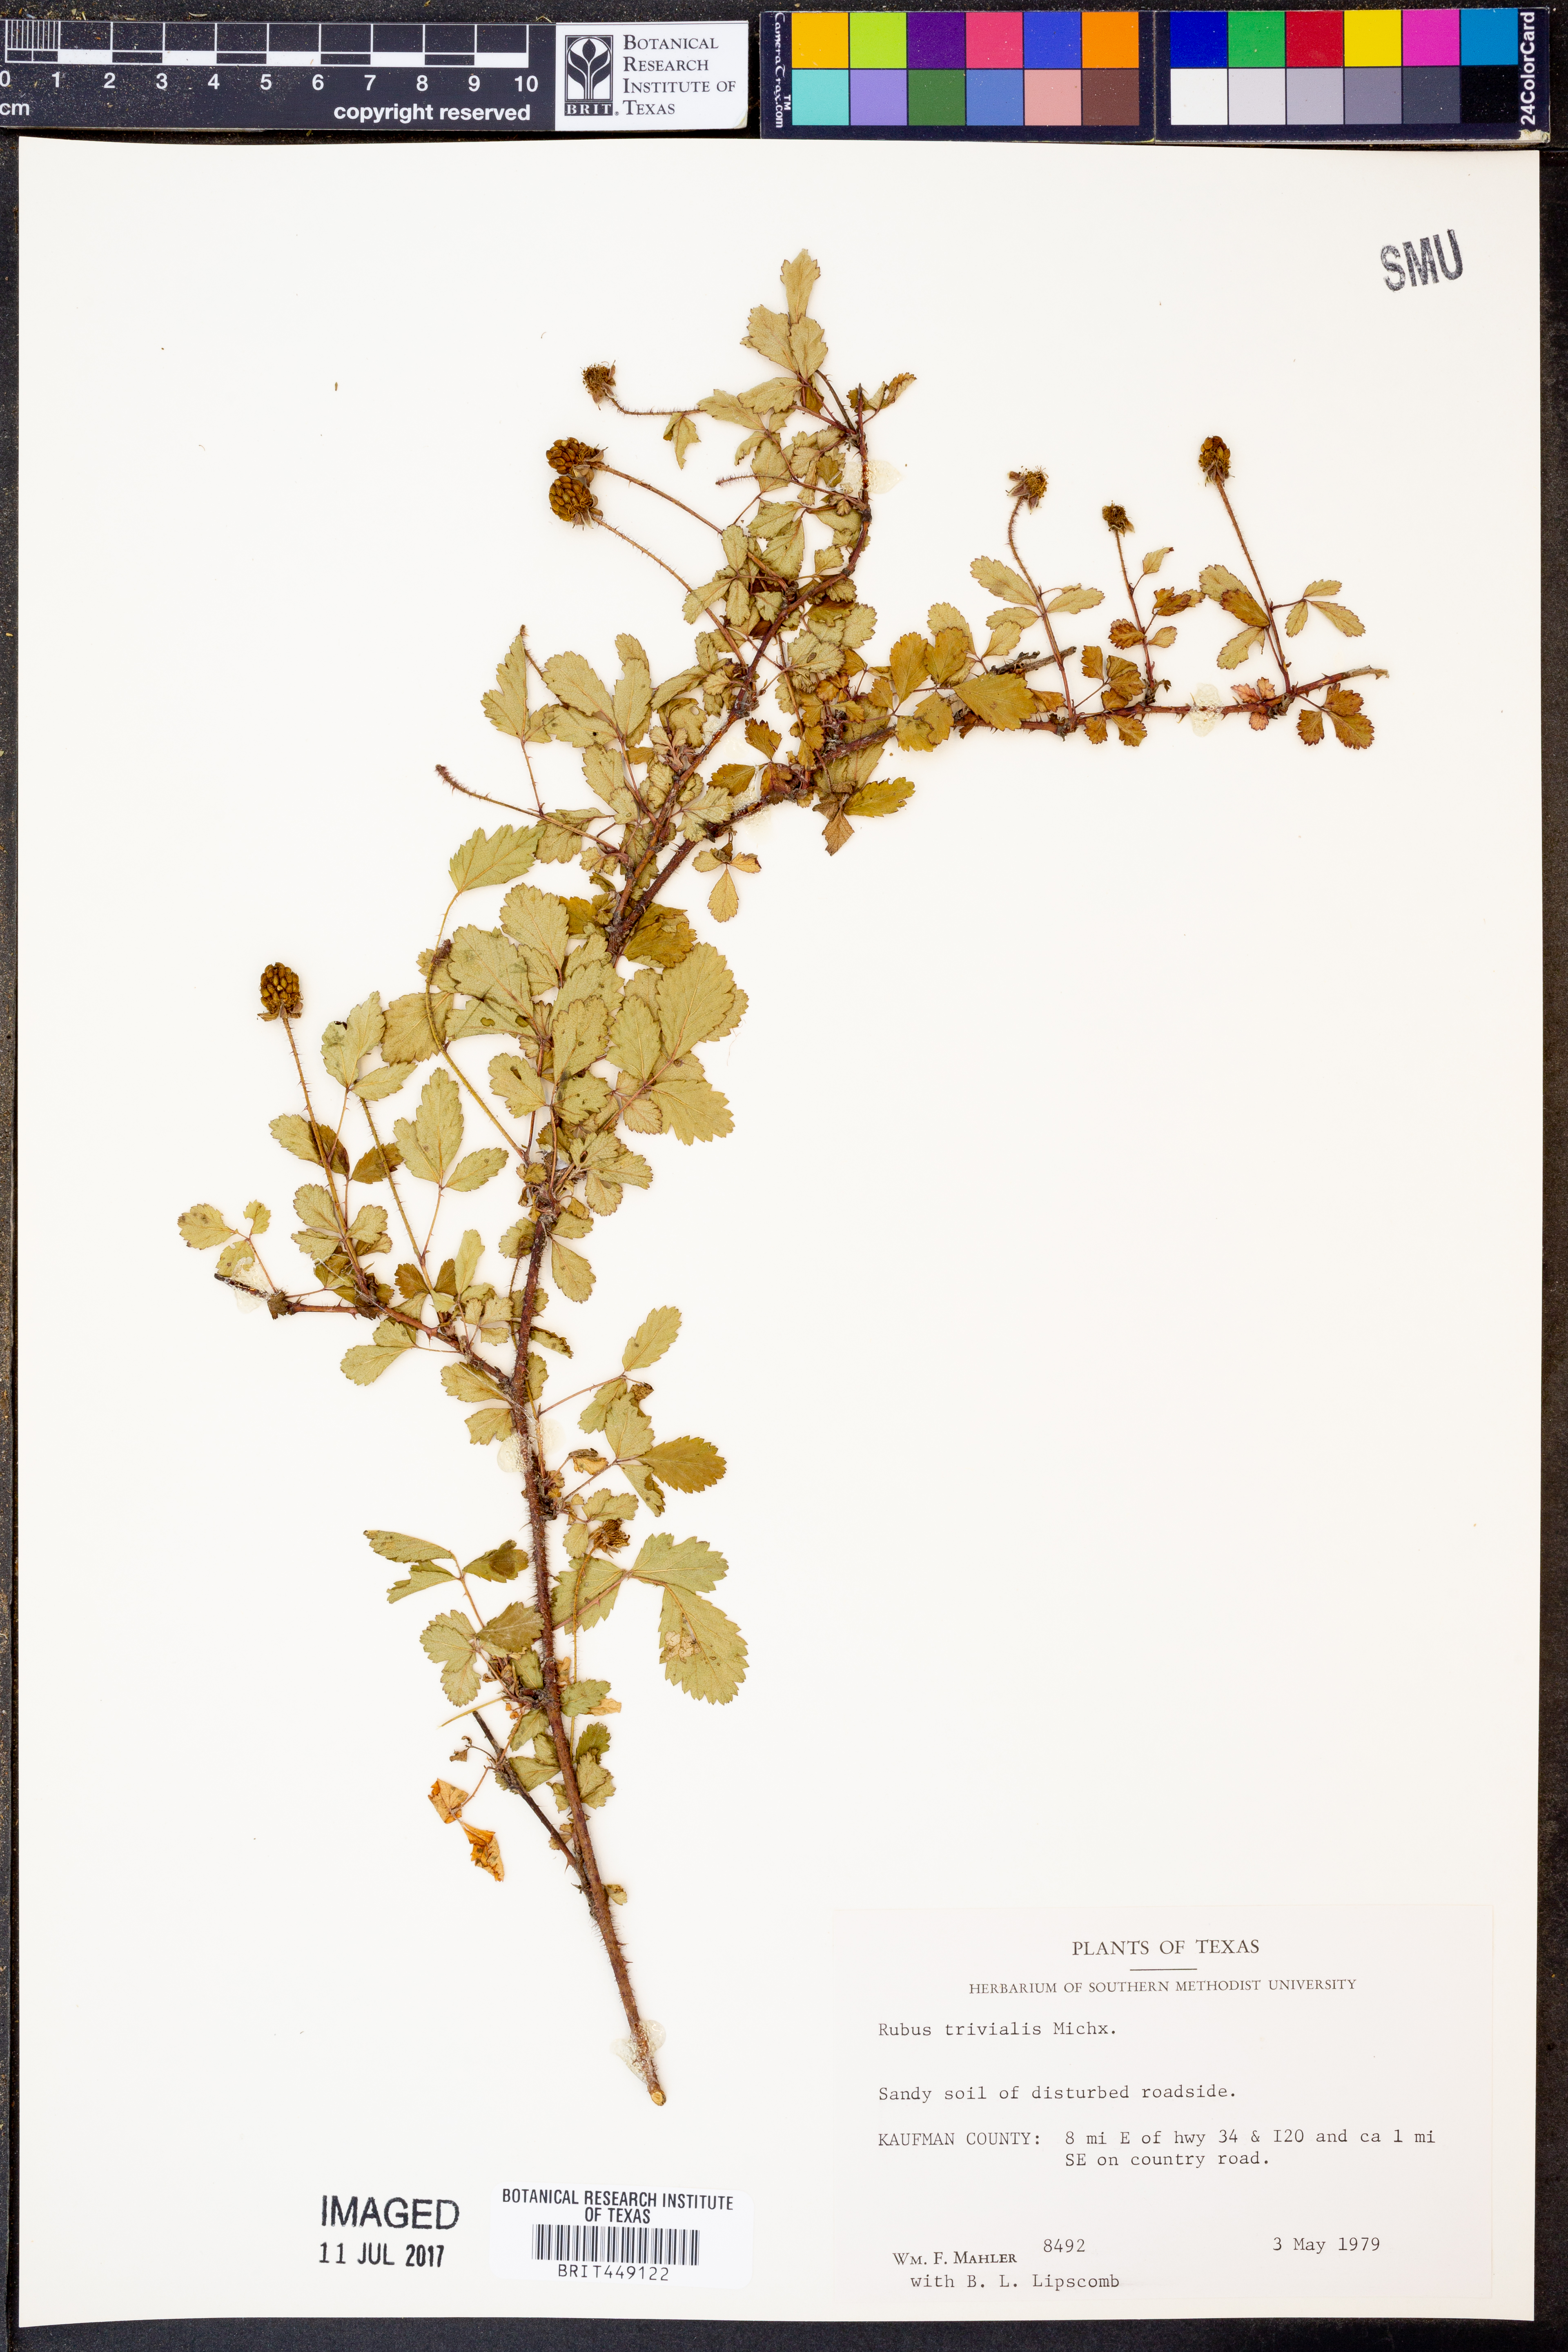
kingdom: Plantae
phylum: Tracheophyta
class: Magnoliopsida
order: Rosales
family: Rosaceae
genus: Rubus
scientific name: Rubus trivialis
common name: Southern dewberry
